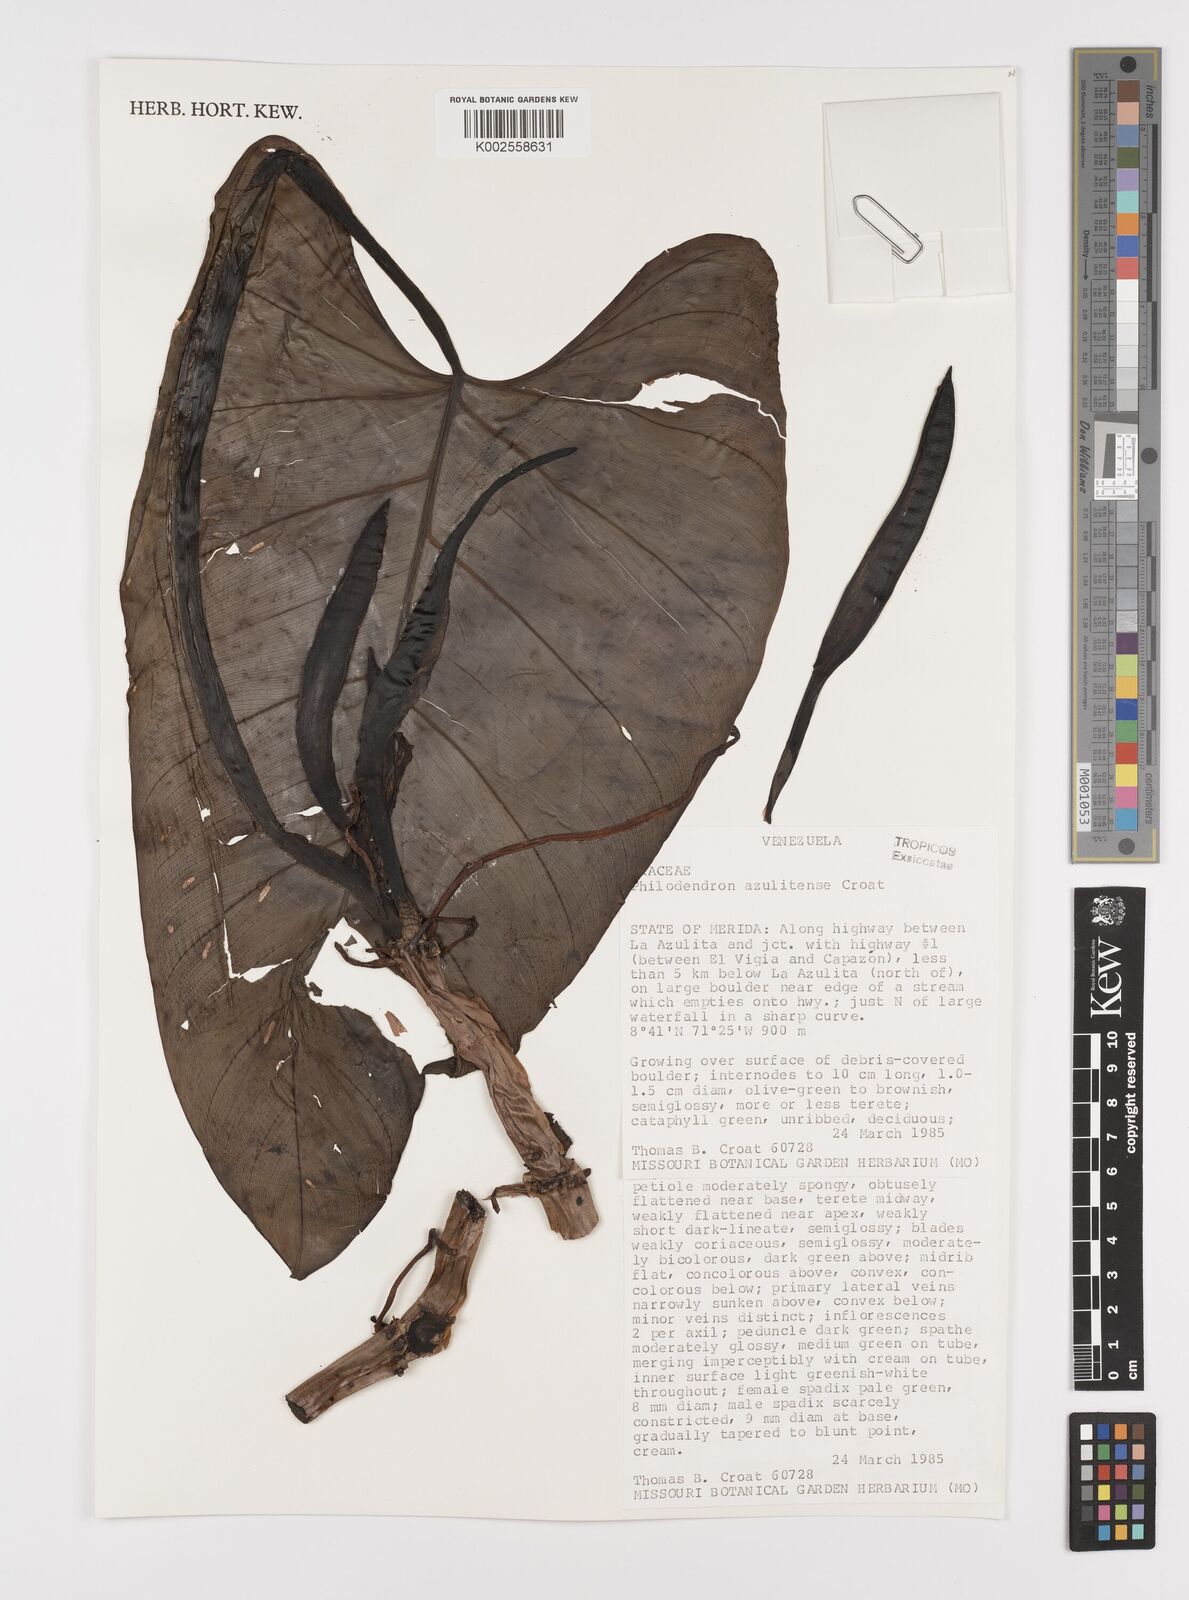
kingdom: Plantae
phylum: Tracheophyta
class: Liliopsida
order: Alismatales
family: Araceae
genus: Philodendron
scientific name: Philodendron azulitense
